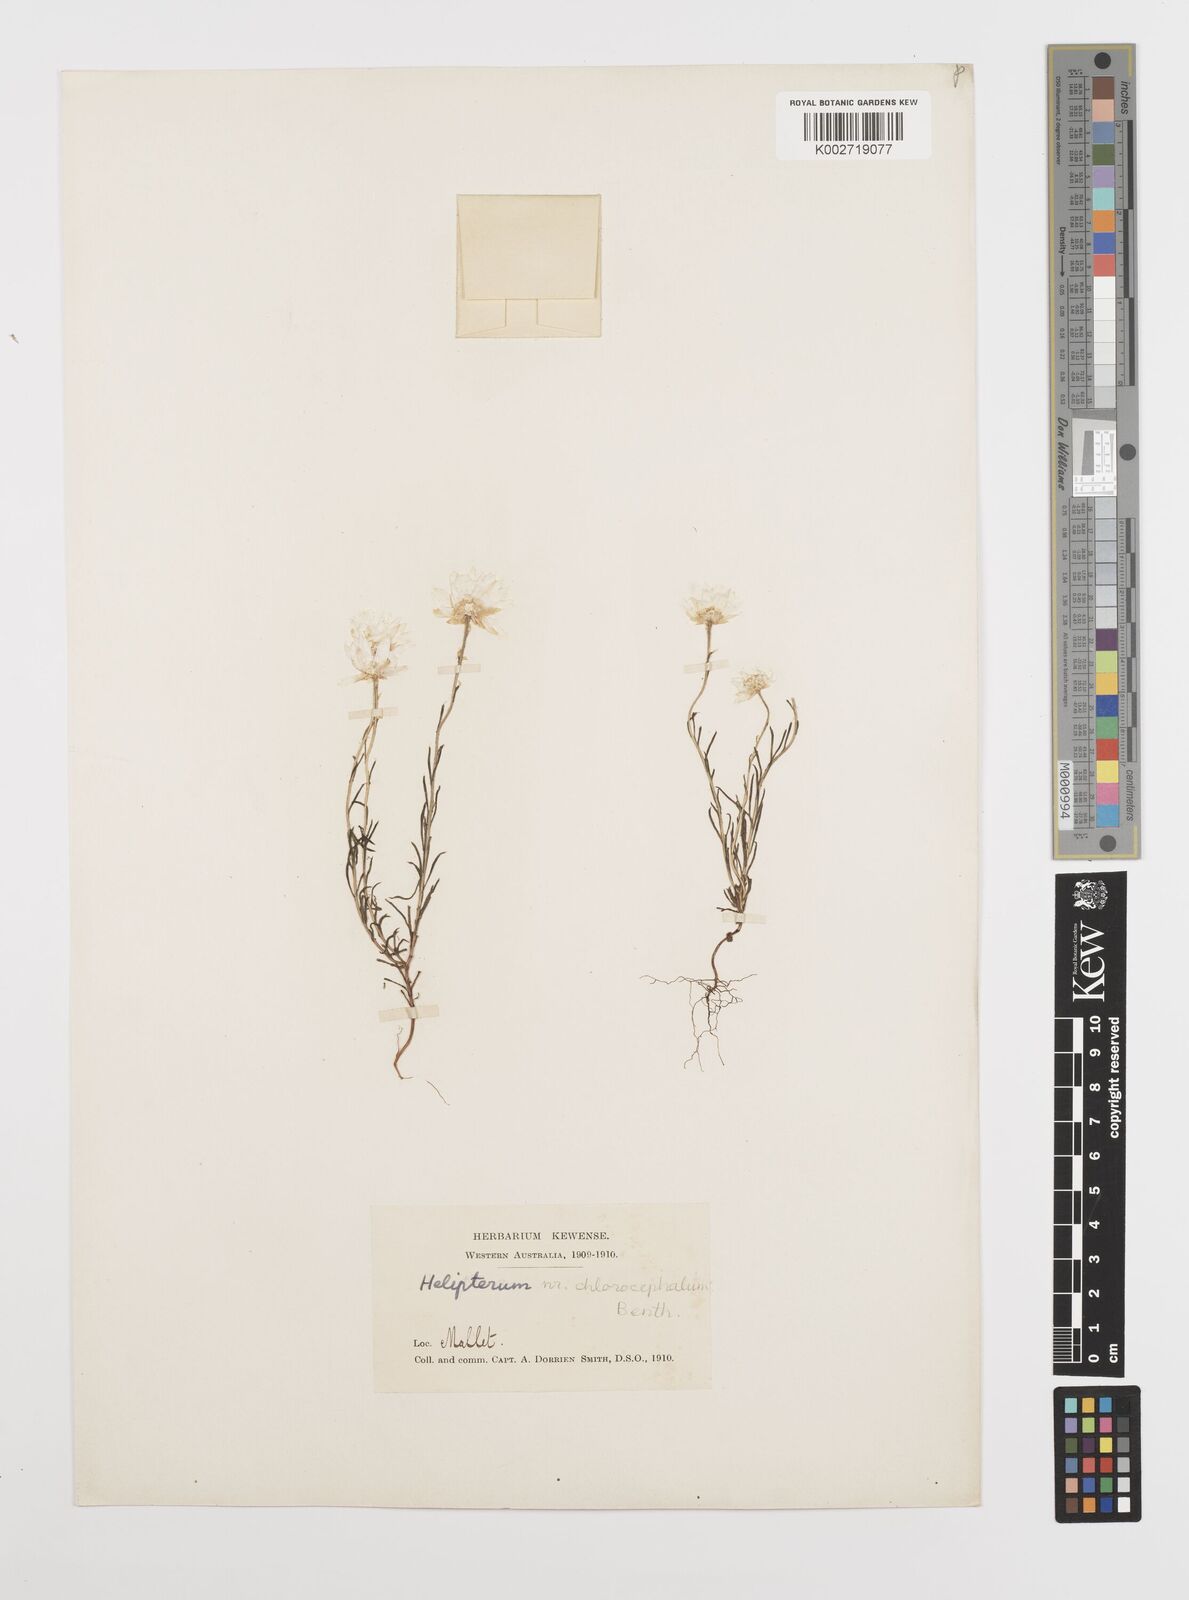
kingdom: Plantae
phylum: Tracheophyta
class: Magnoliopsida
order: Asterales
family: Asteraceae
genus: Rhodanthe
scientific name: Rhodanthe chlorocephala
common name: Rosy sunray
